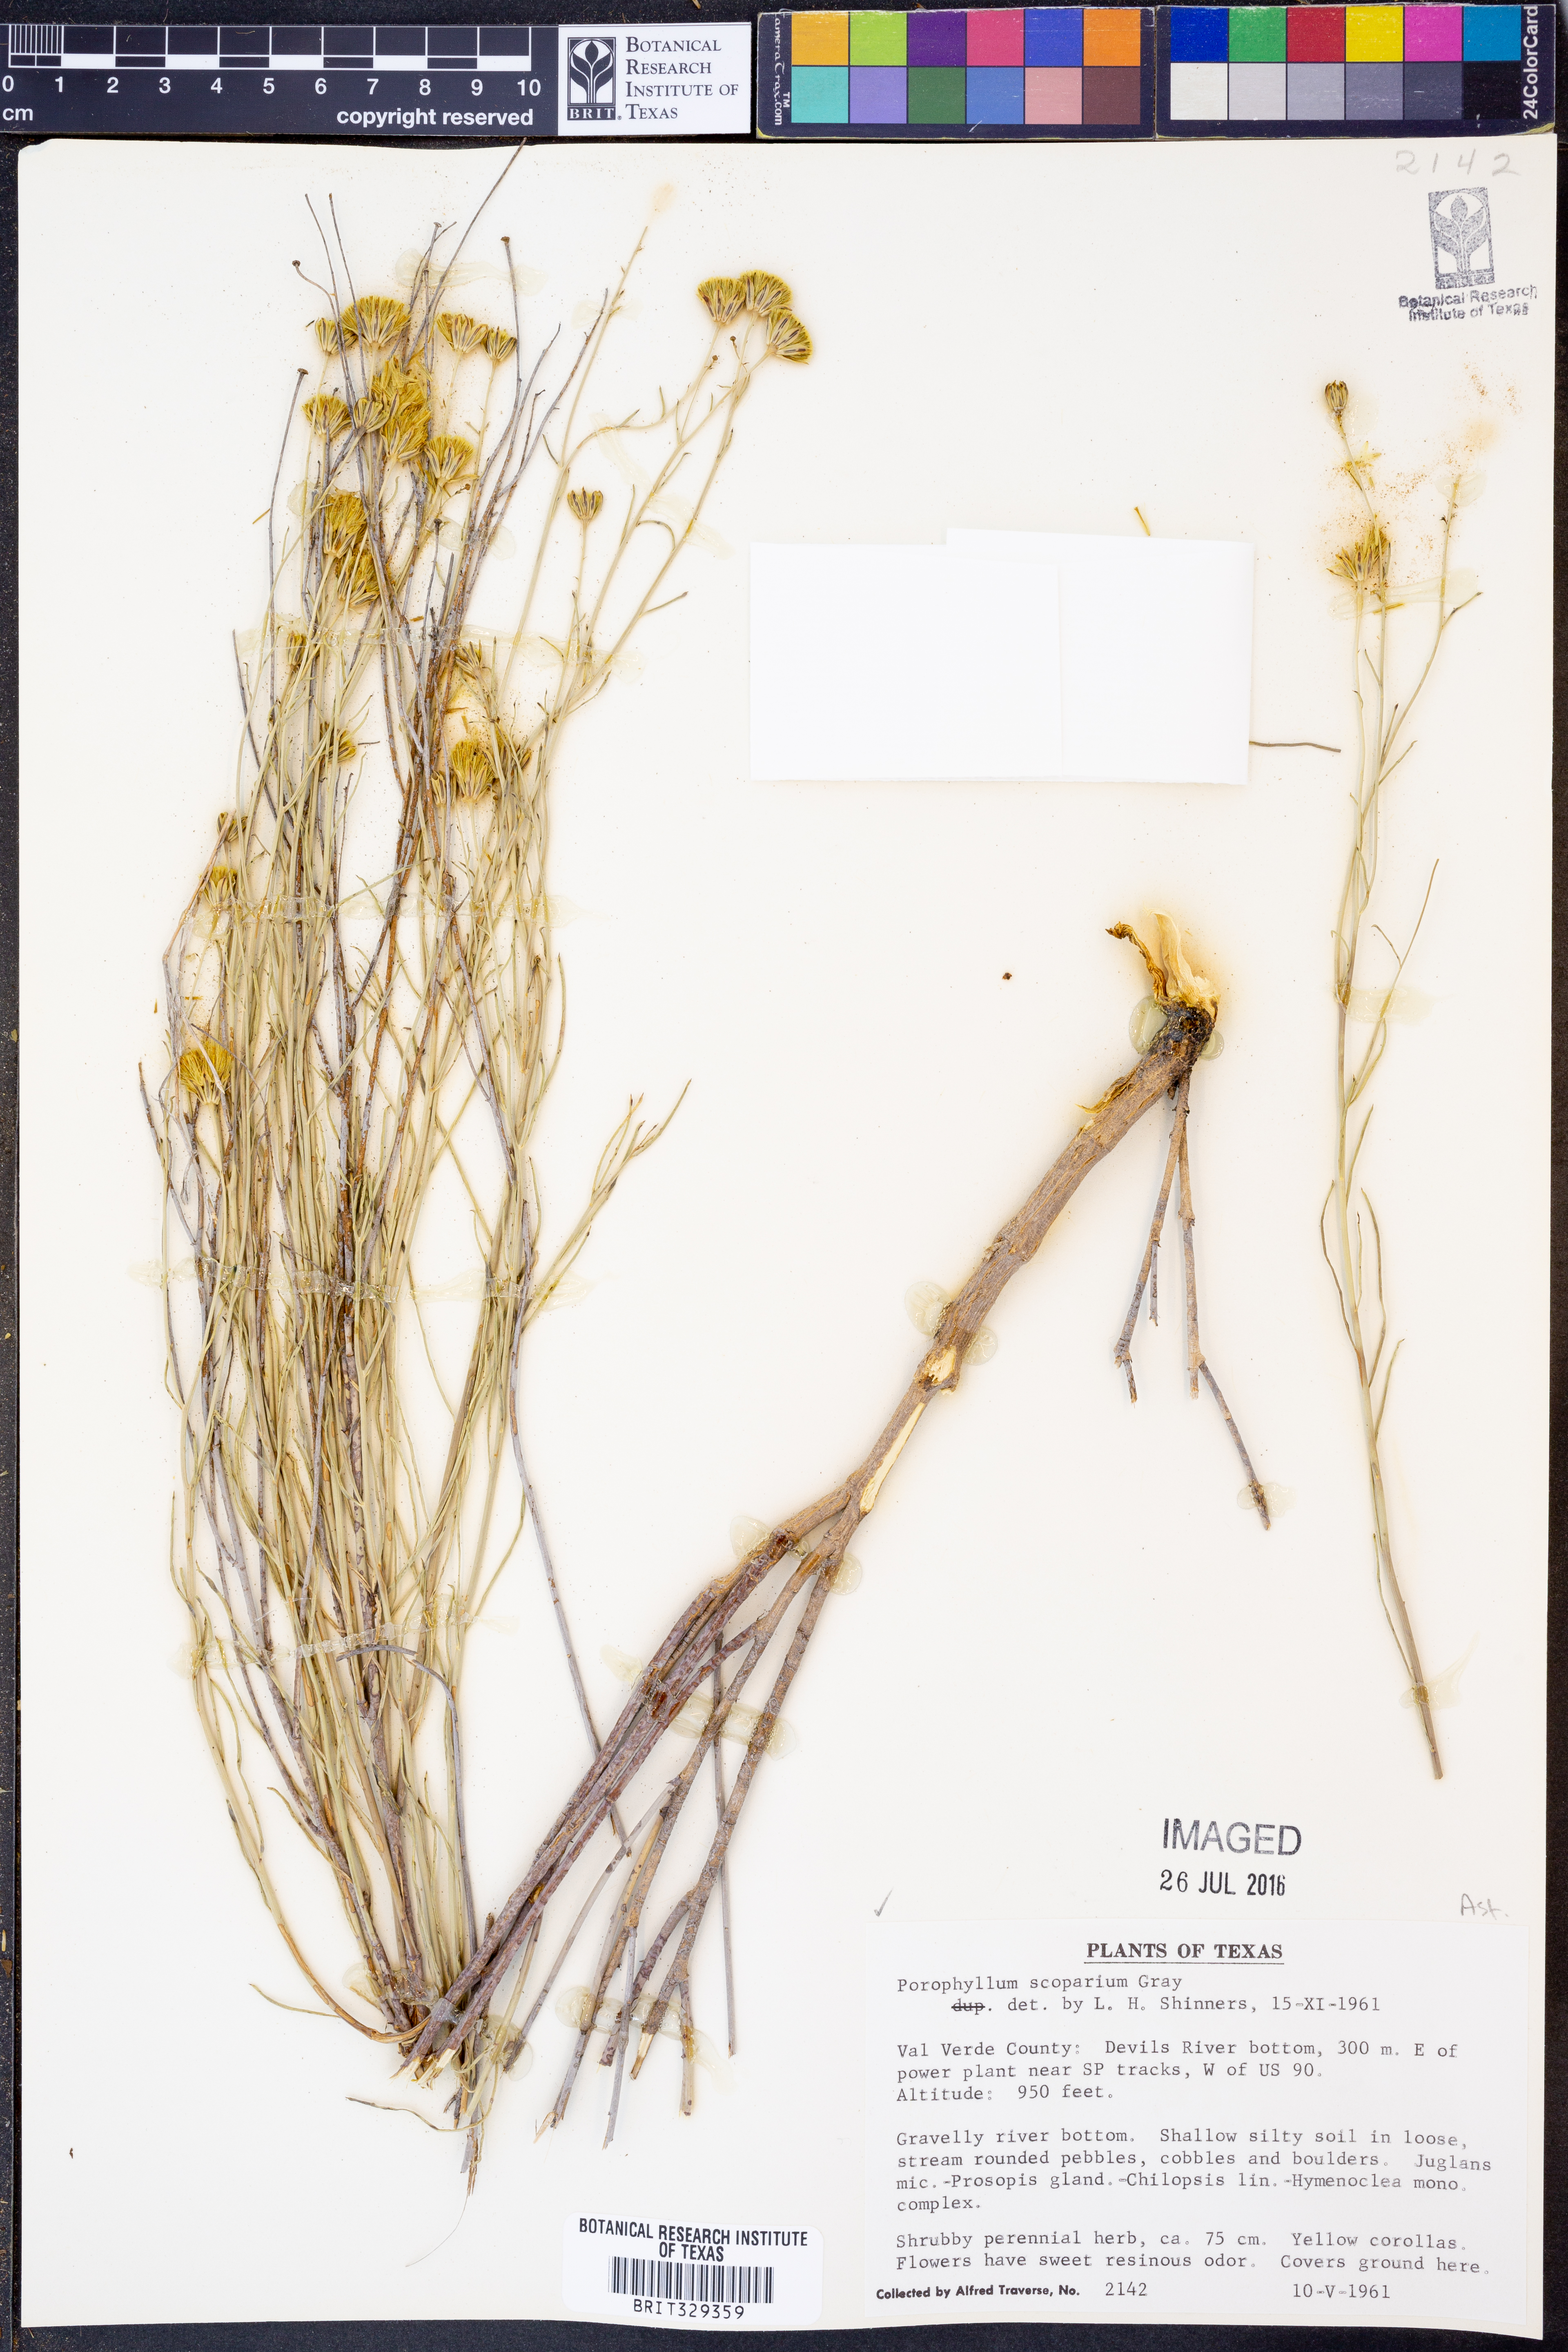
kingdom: Plantae
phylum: Tracheophyta
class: Magnoliopsida
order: Asterales
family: Asteraceae
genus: Porophyllum
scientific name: Porophyllum scoparium
